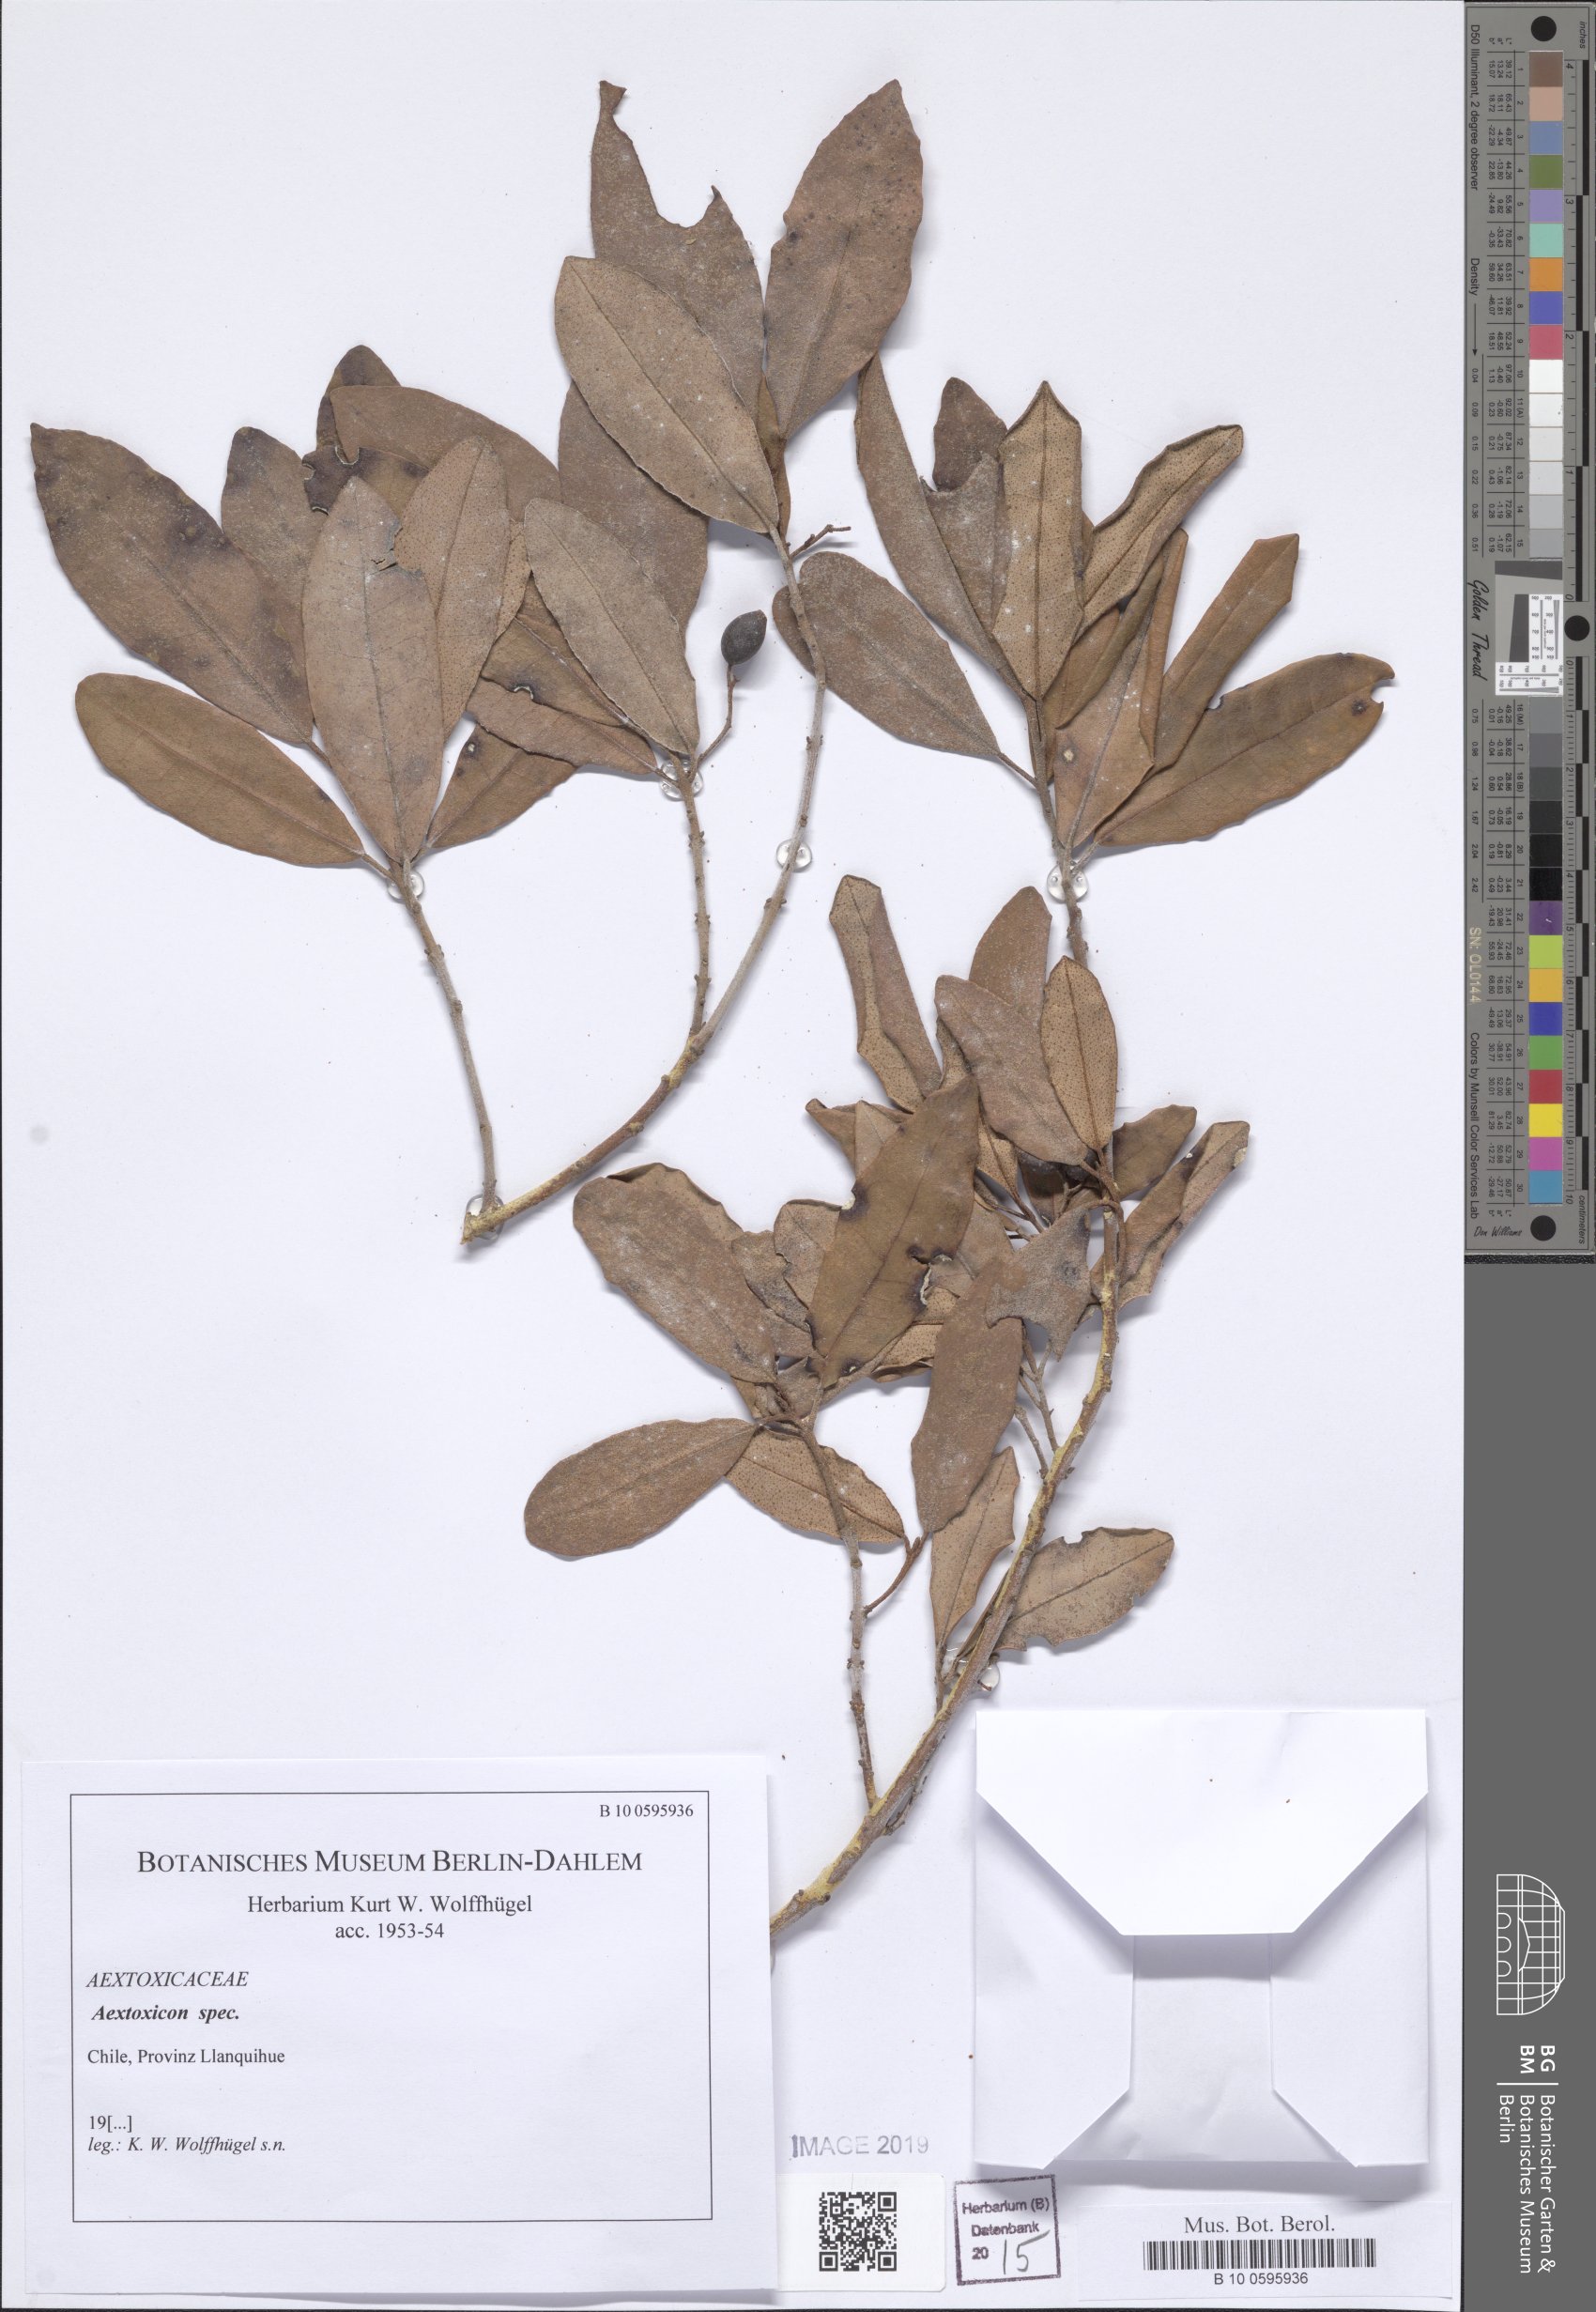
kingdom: Plantae
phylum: Tracheophyta
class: Magnoliopsida
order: Berberidopsidales
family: Aextoxicaceae
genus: Aextoxicon
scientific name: Aextoxicon
